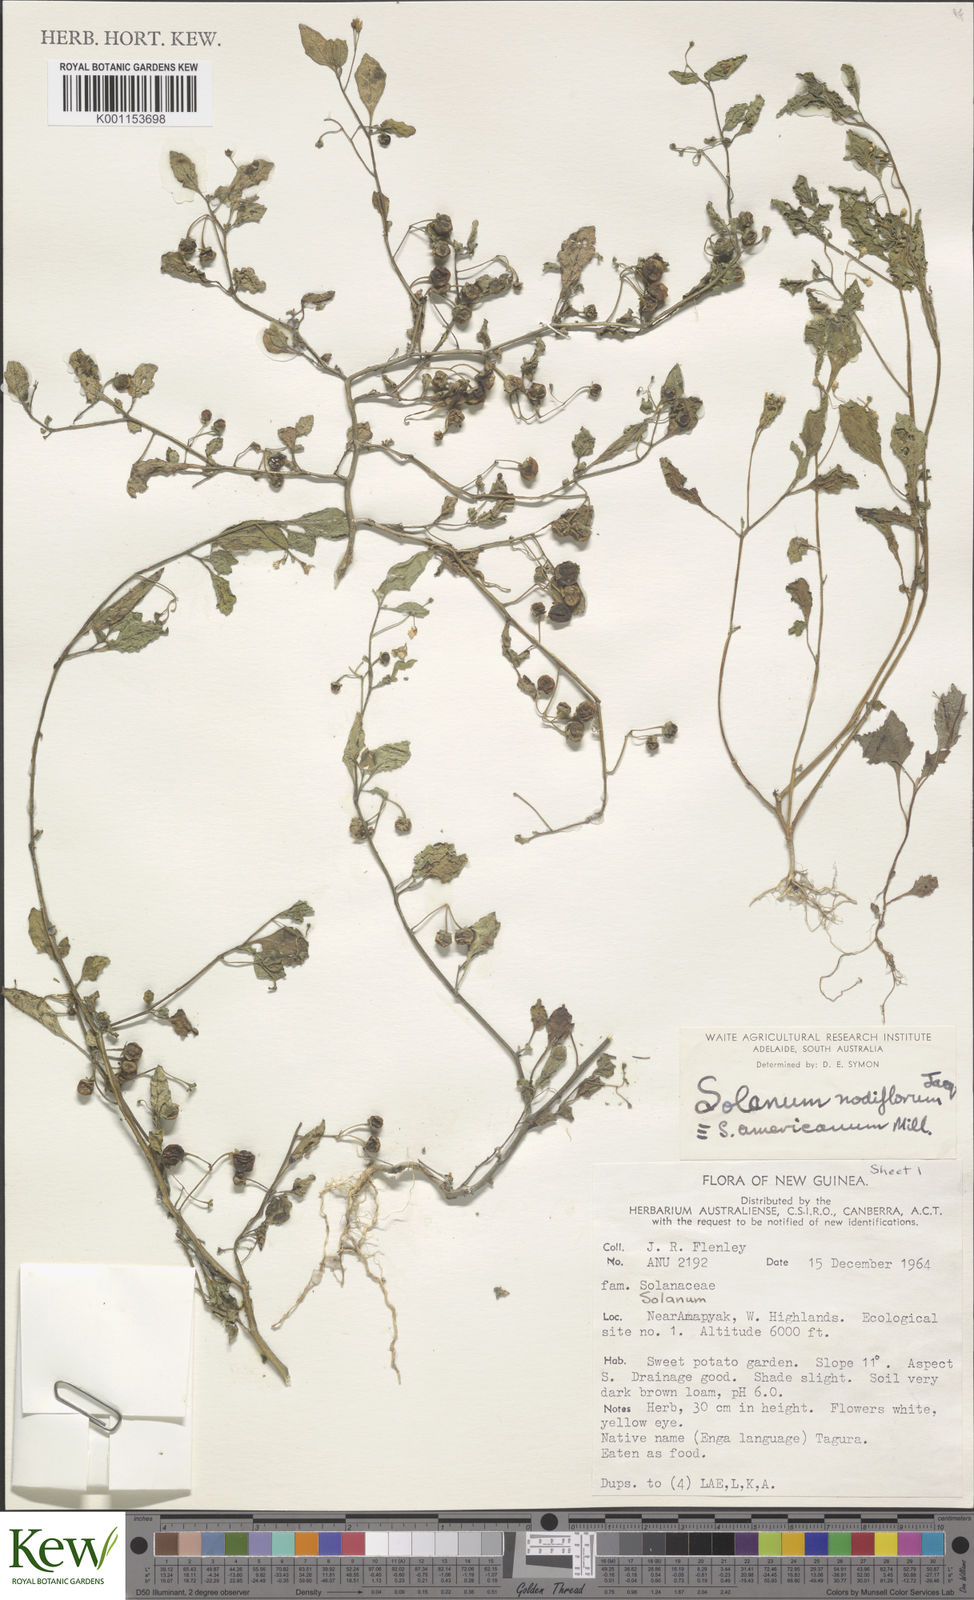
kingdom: Plantae
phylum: Tracheophyta
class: Magnoliopsida
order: Solanales
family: Solanaceae
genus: Solanum
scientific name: Solanum americanum
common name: American black nightshade
